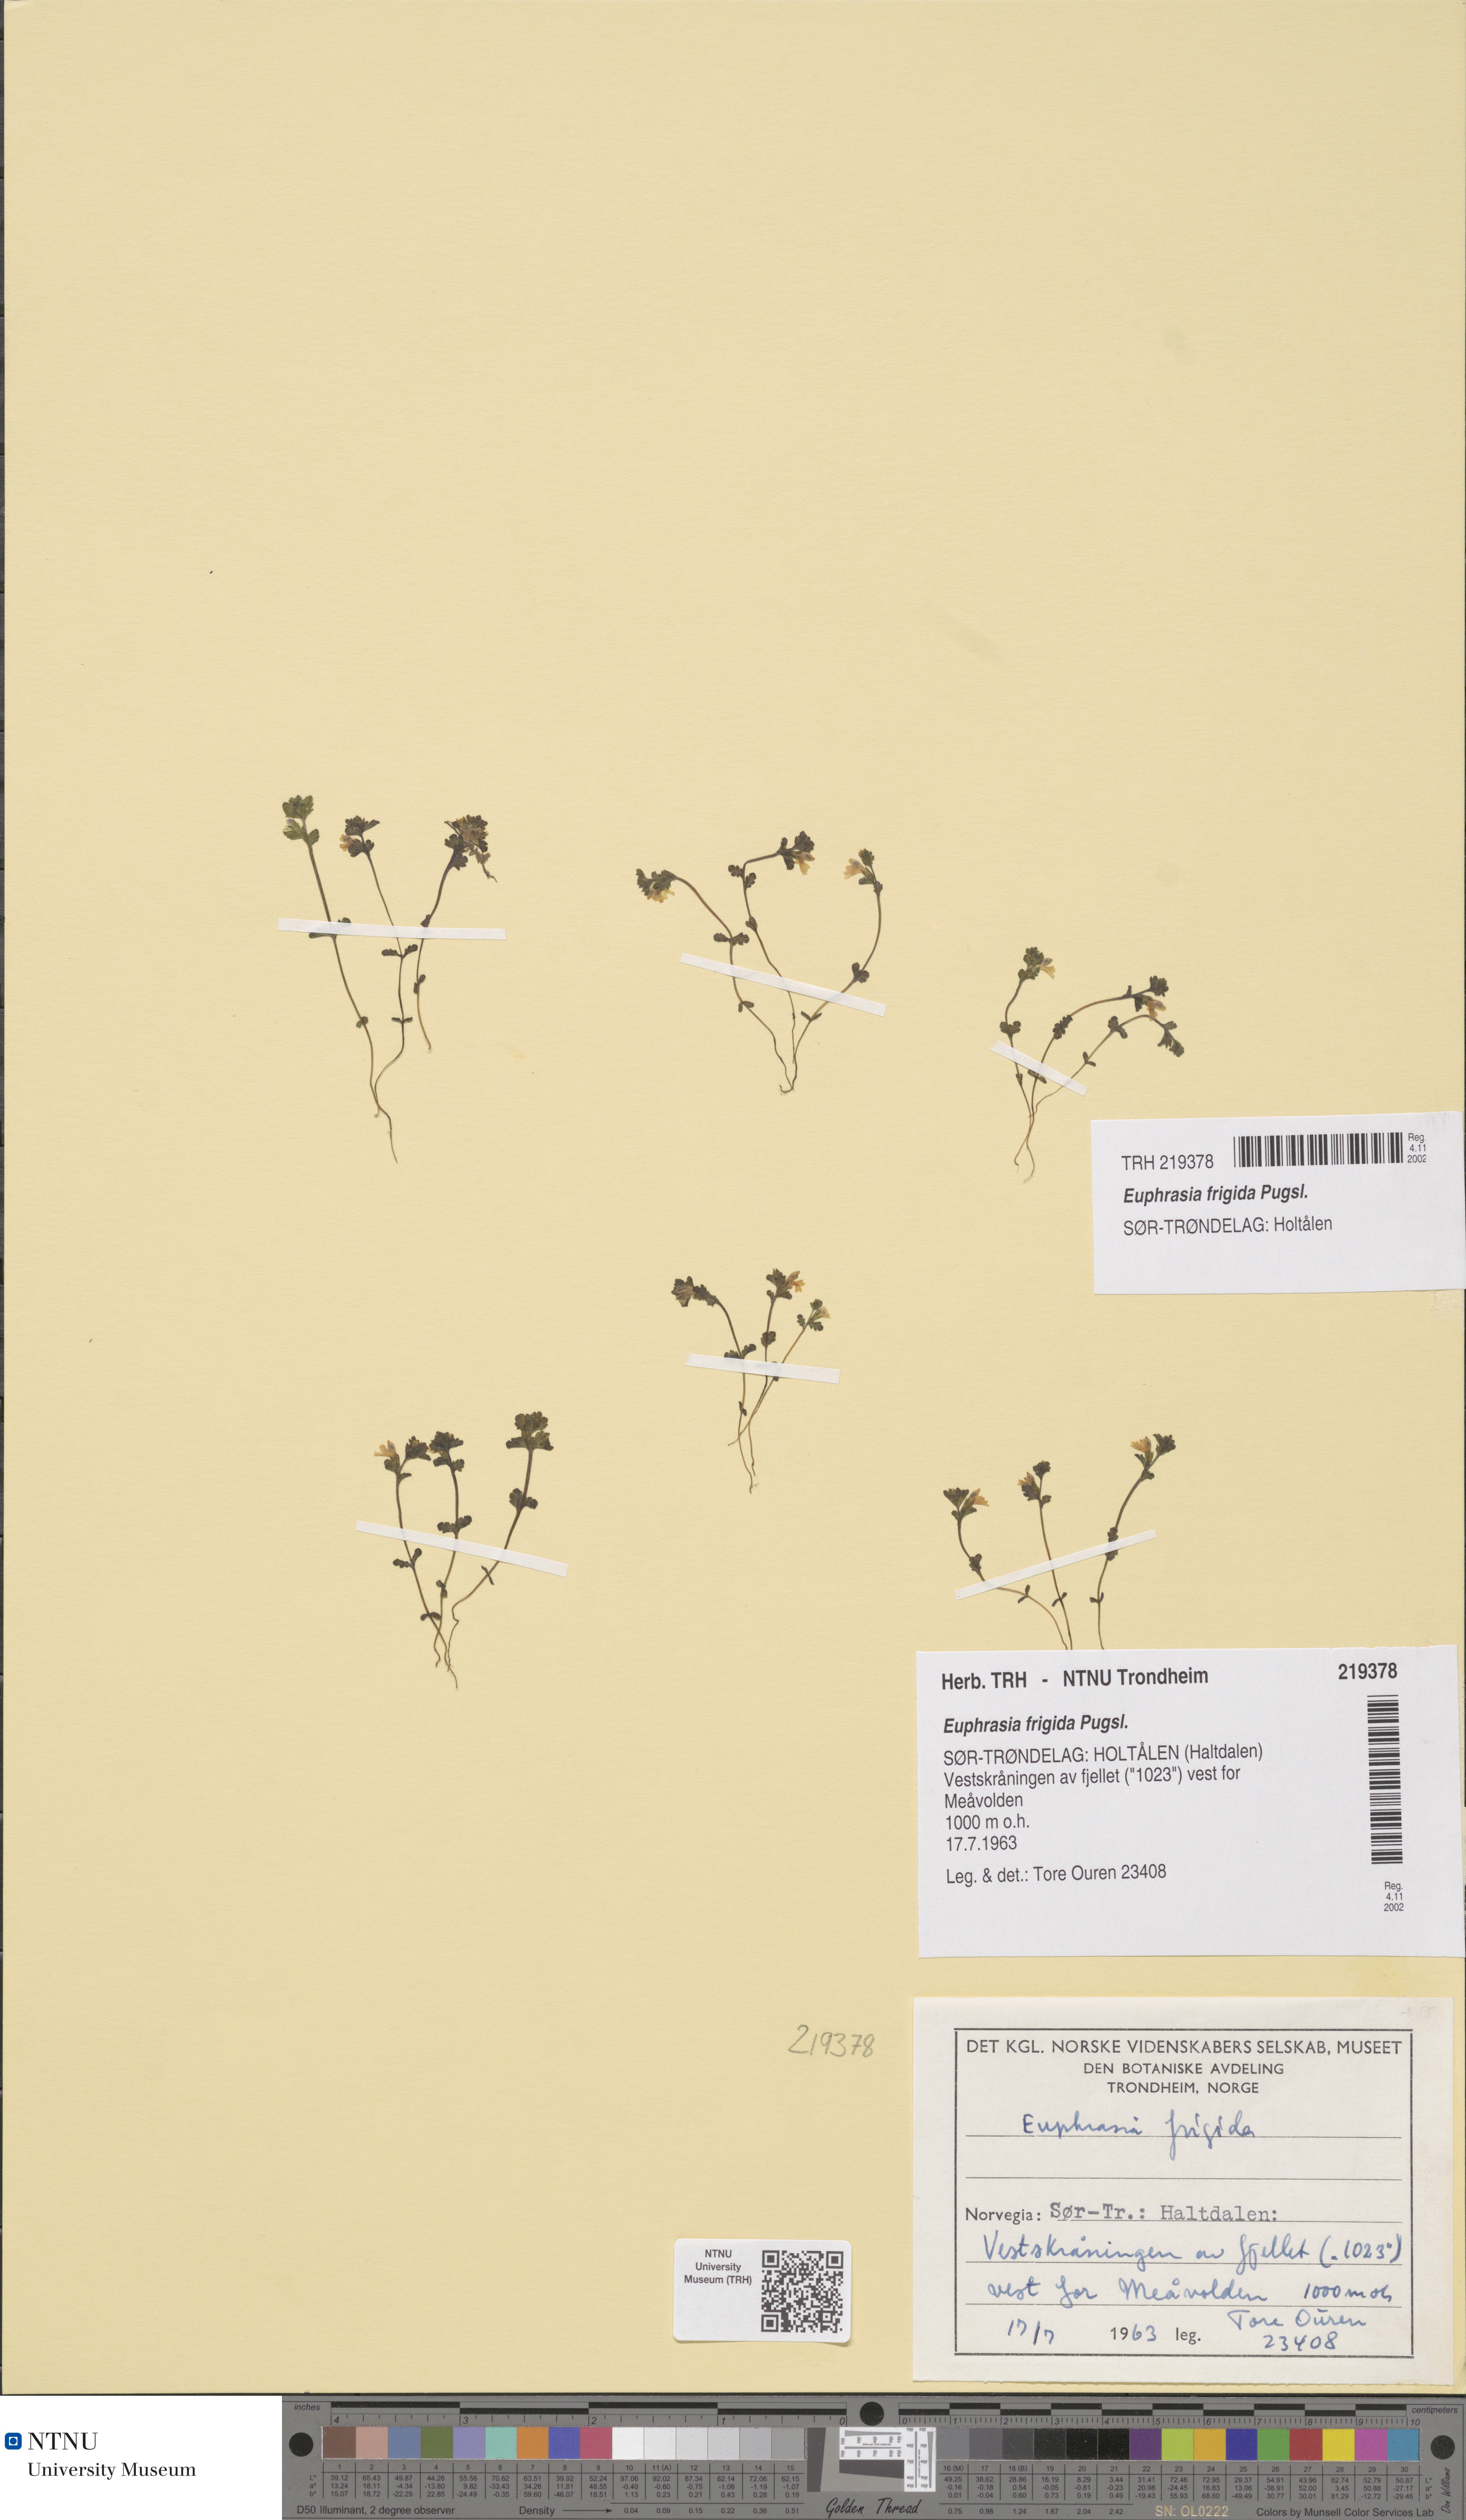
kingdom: Plantae
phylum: Tracheophyta
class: Magnoliopsida
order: Lamiales
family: Orobanchaceae
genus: Euphrasia
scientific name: Euphrasia wettsteinii
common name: Wettstein's eyebright
